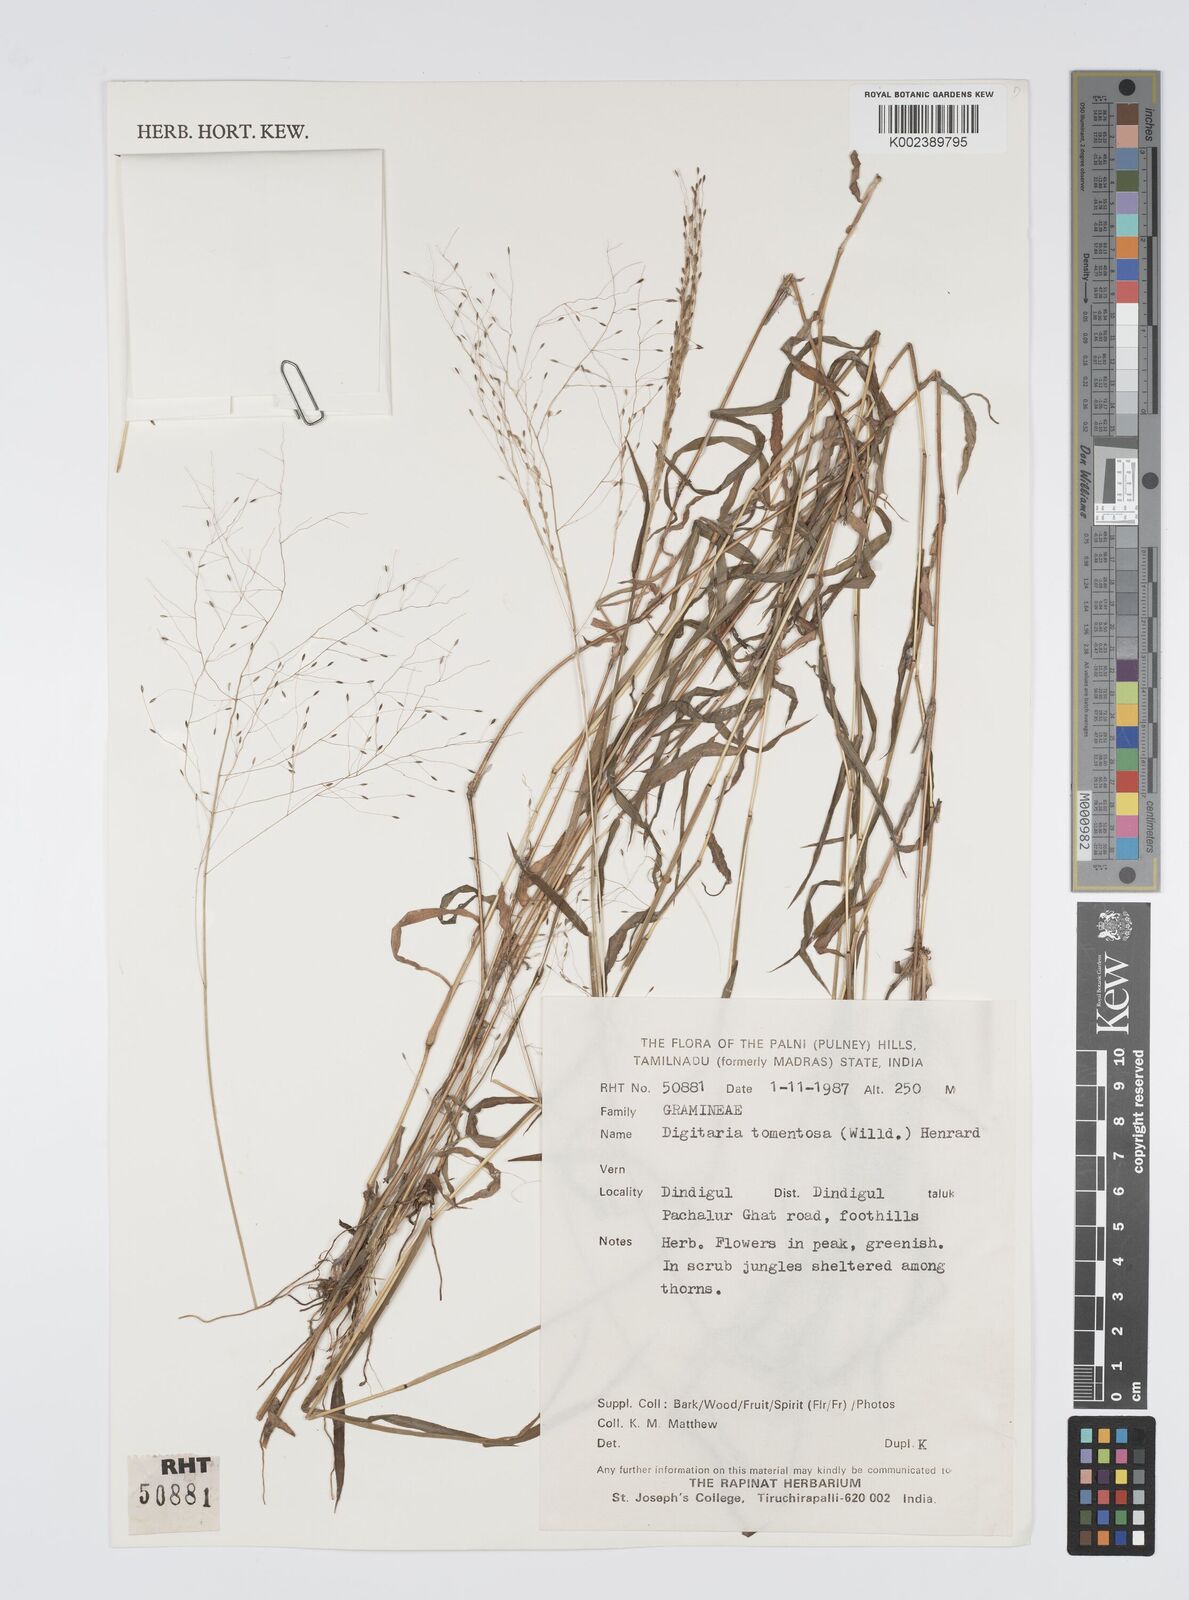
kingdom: Plantae
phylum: Tracheophyta
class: Liliopsida
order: Poales
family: Poaceae
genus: Digitaria
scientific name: Digitaria tomentosa
